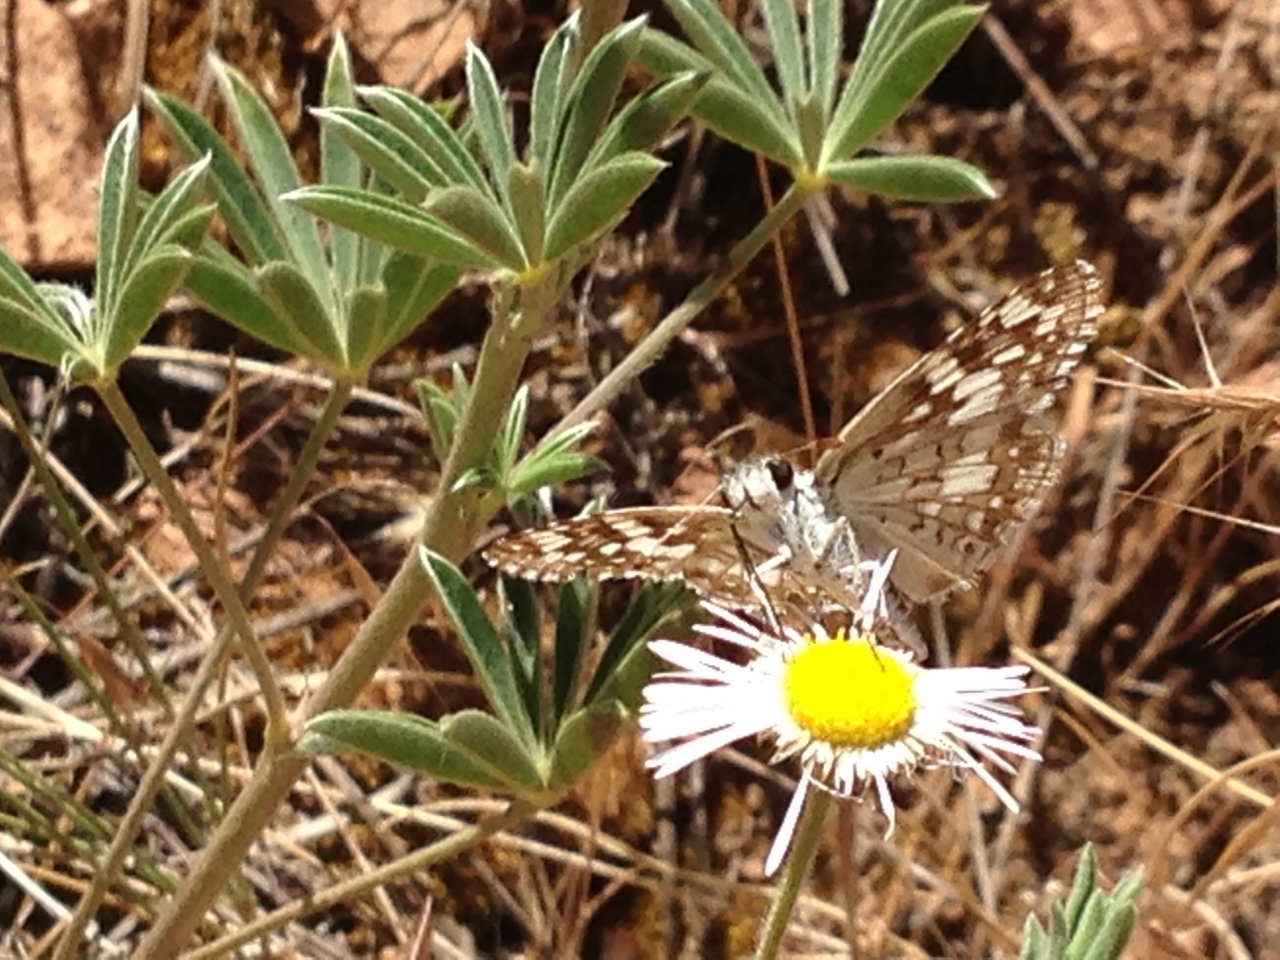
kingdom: Animalia
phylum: Arthropoda
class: Insecta
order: Lepidoptera
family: Hesperiidae
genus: Pyrgus
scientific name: Pyrgus communis
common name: White Checkered-Skipper
